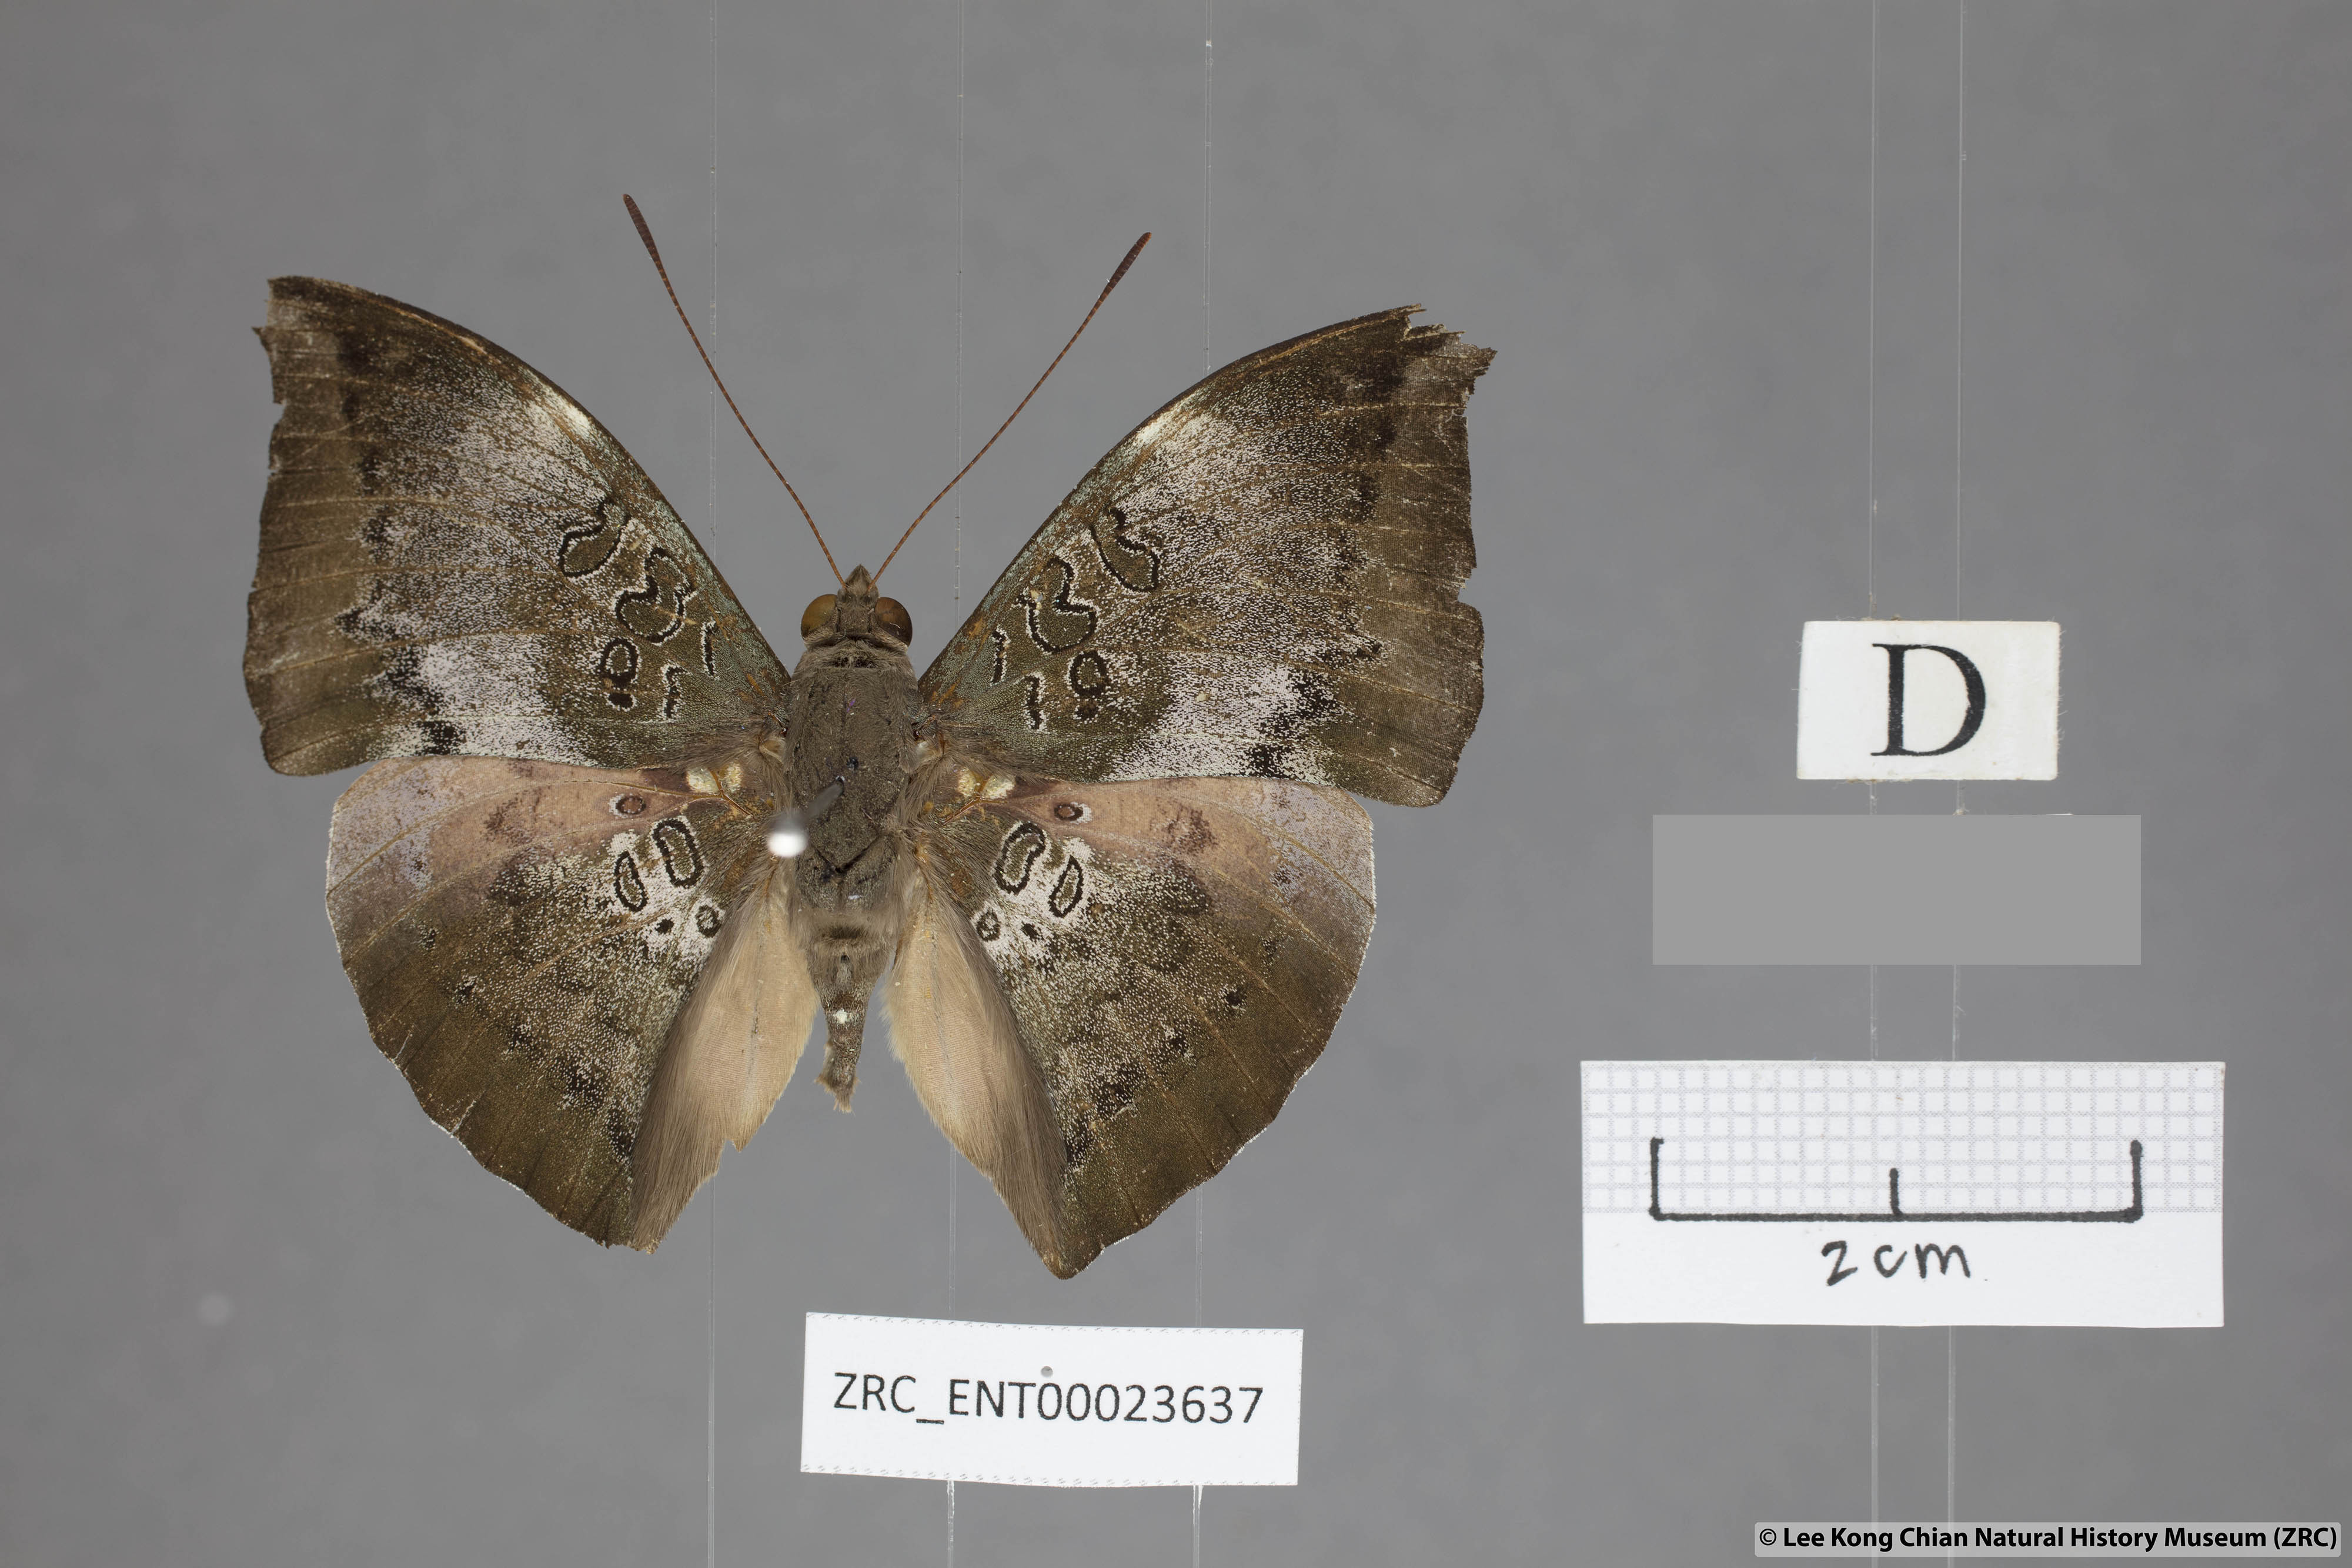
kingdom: Animalia
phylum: Arthropoda
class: Insecta
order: Lepidoptera
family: Nymphalidae
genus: Euthalia
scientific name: Euthalia anosia
